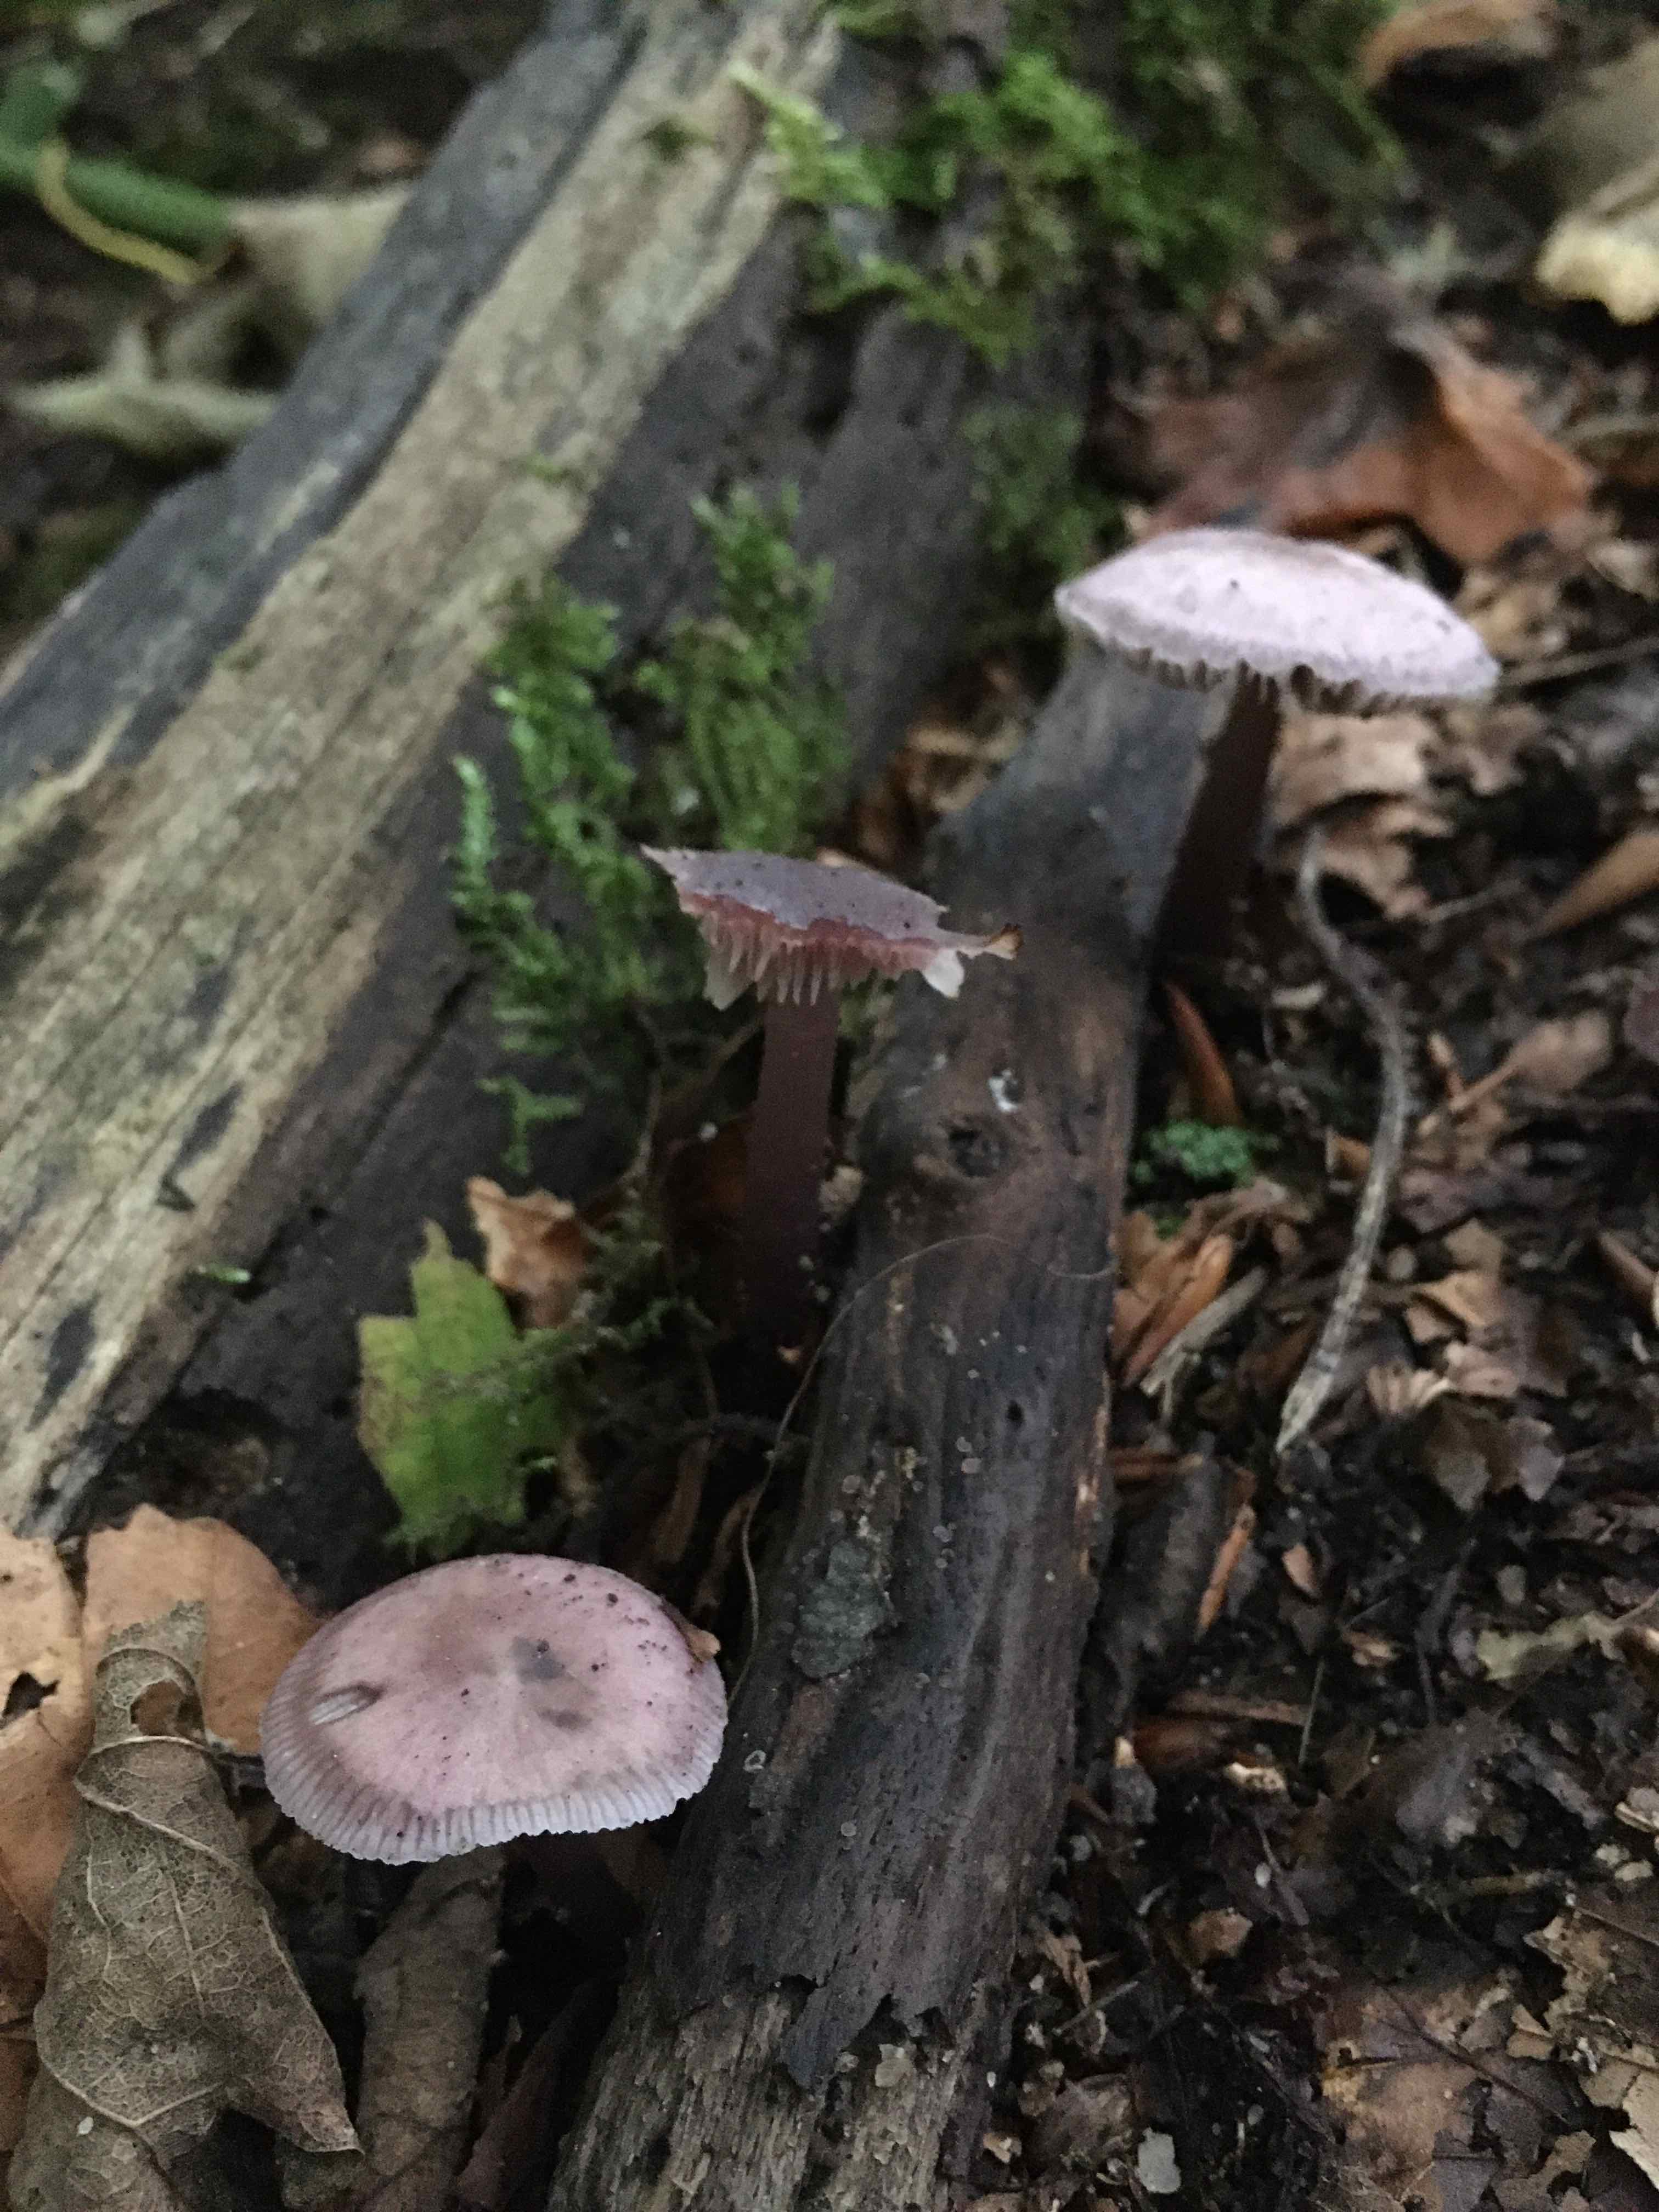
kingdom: Fungi
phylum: Basidiomycota
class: Agaricomycetes
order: Agaricales
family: Mycenaceae
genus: Prunulus
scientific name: Prunulus diosmus
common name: tobaks-huesvamp
